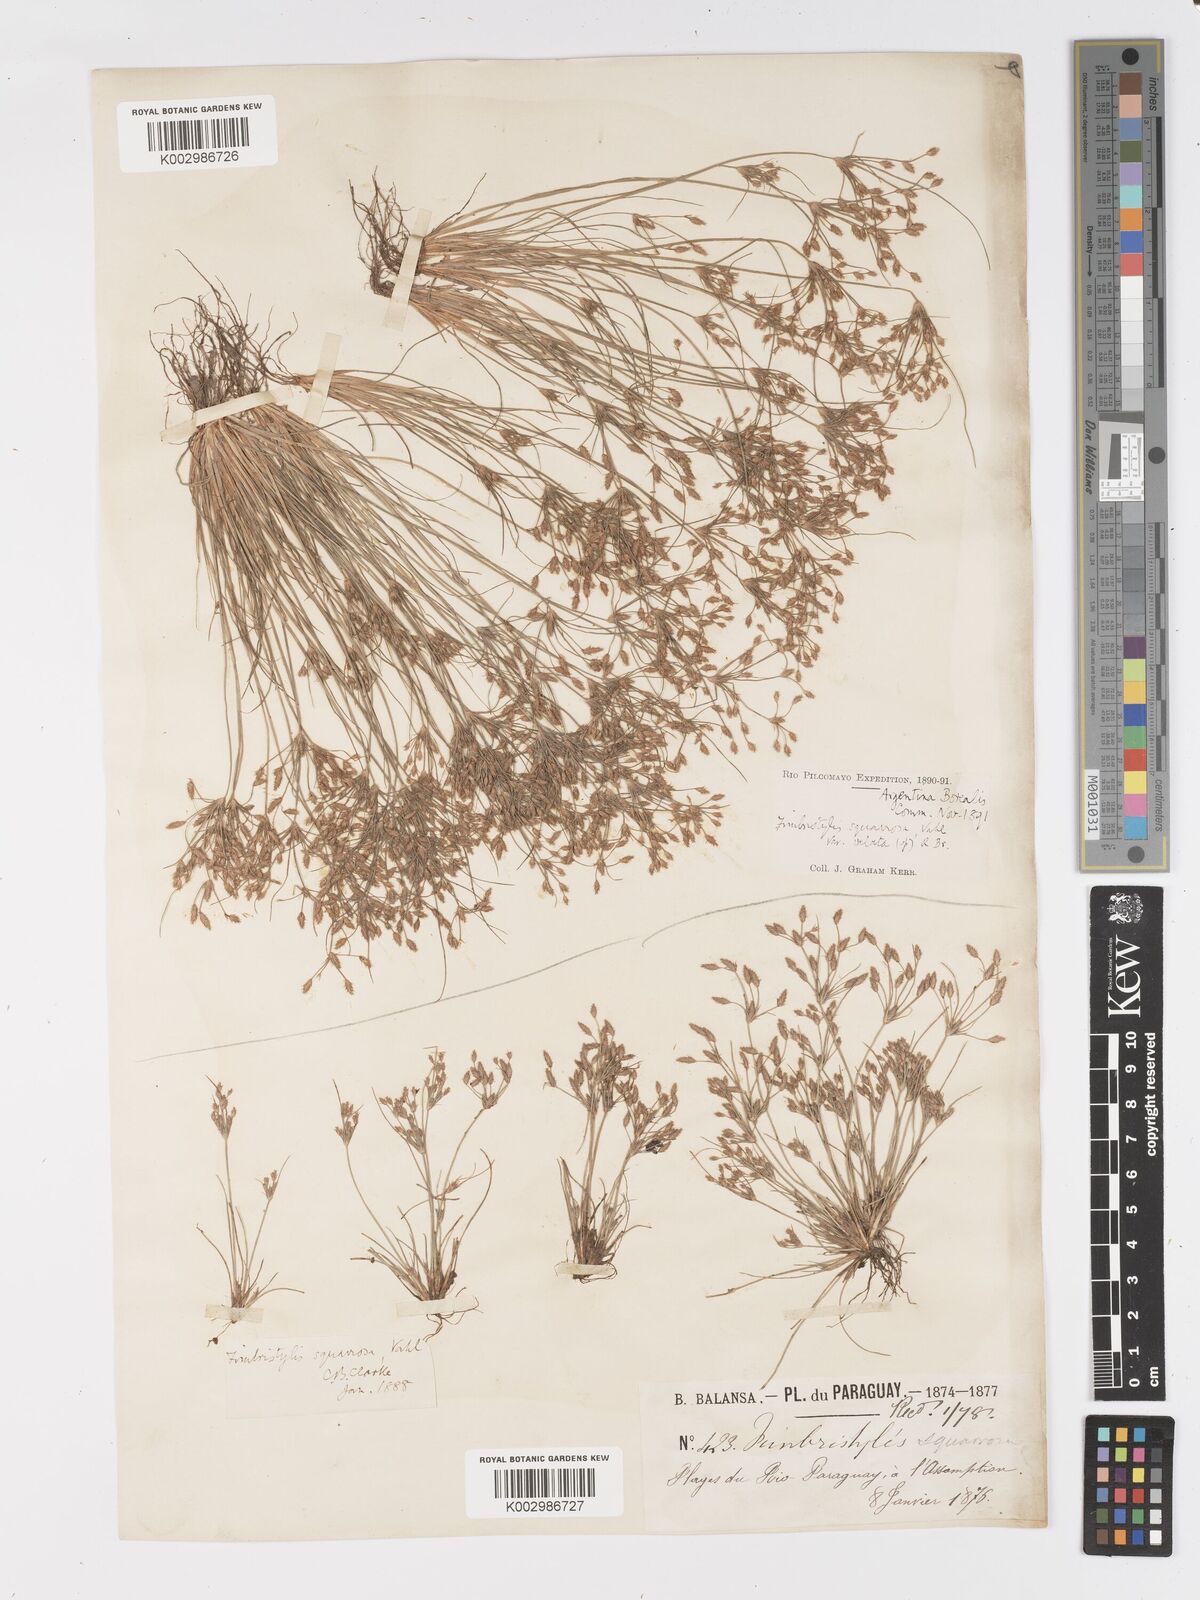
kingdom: Plantae
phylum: Tracheophyta
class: Liliopsida
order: Poales
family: Cyperaceae
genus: Fimbristylis
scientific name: Fimbristylis squarrosa
